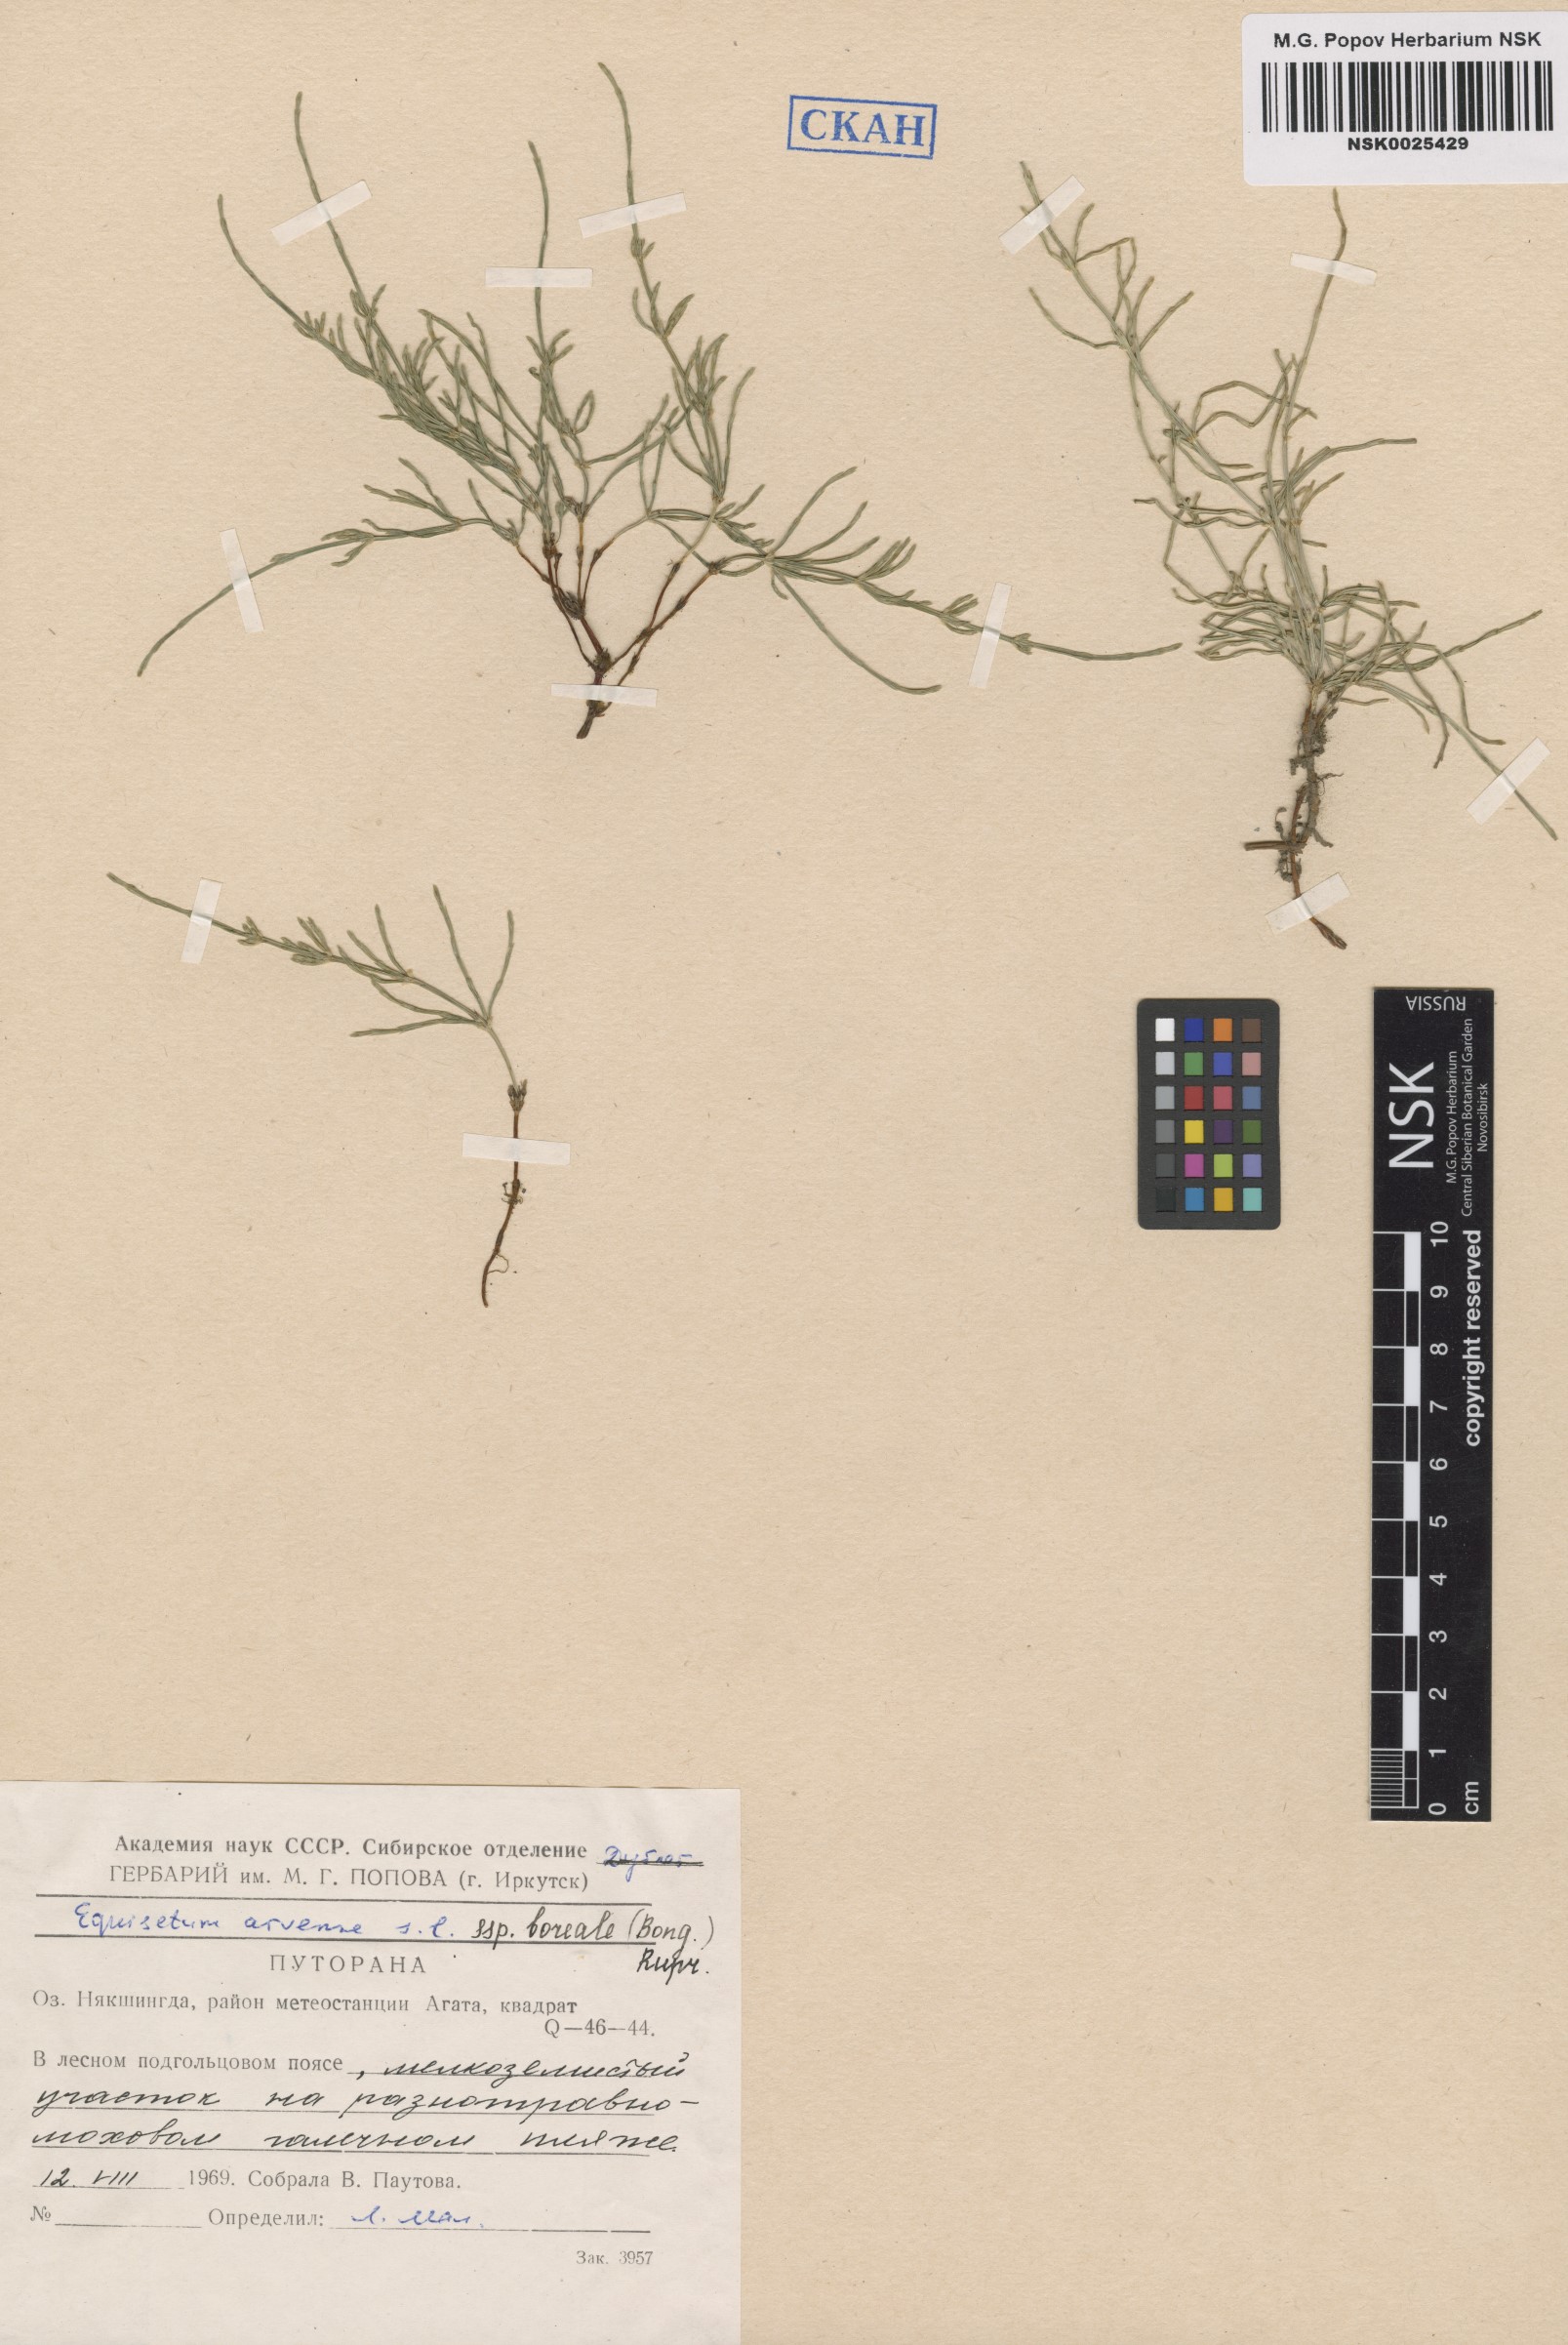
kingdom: Plantae
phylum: Tracheophyta
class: Polypodiopsida
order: Equisetales
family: Equisetaceae
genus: Equisetum
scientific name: Equisetum arvense
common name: Field horsetail
